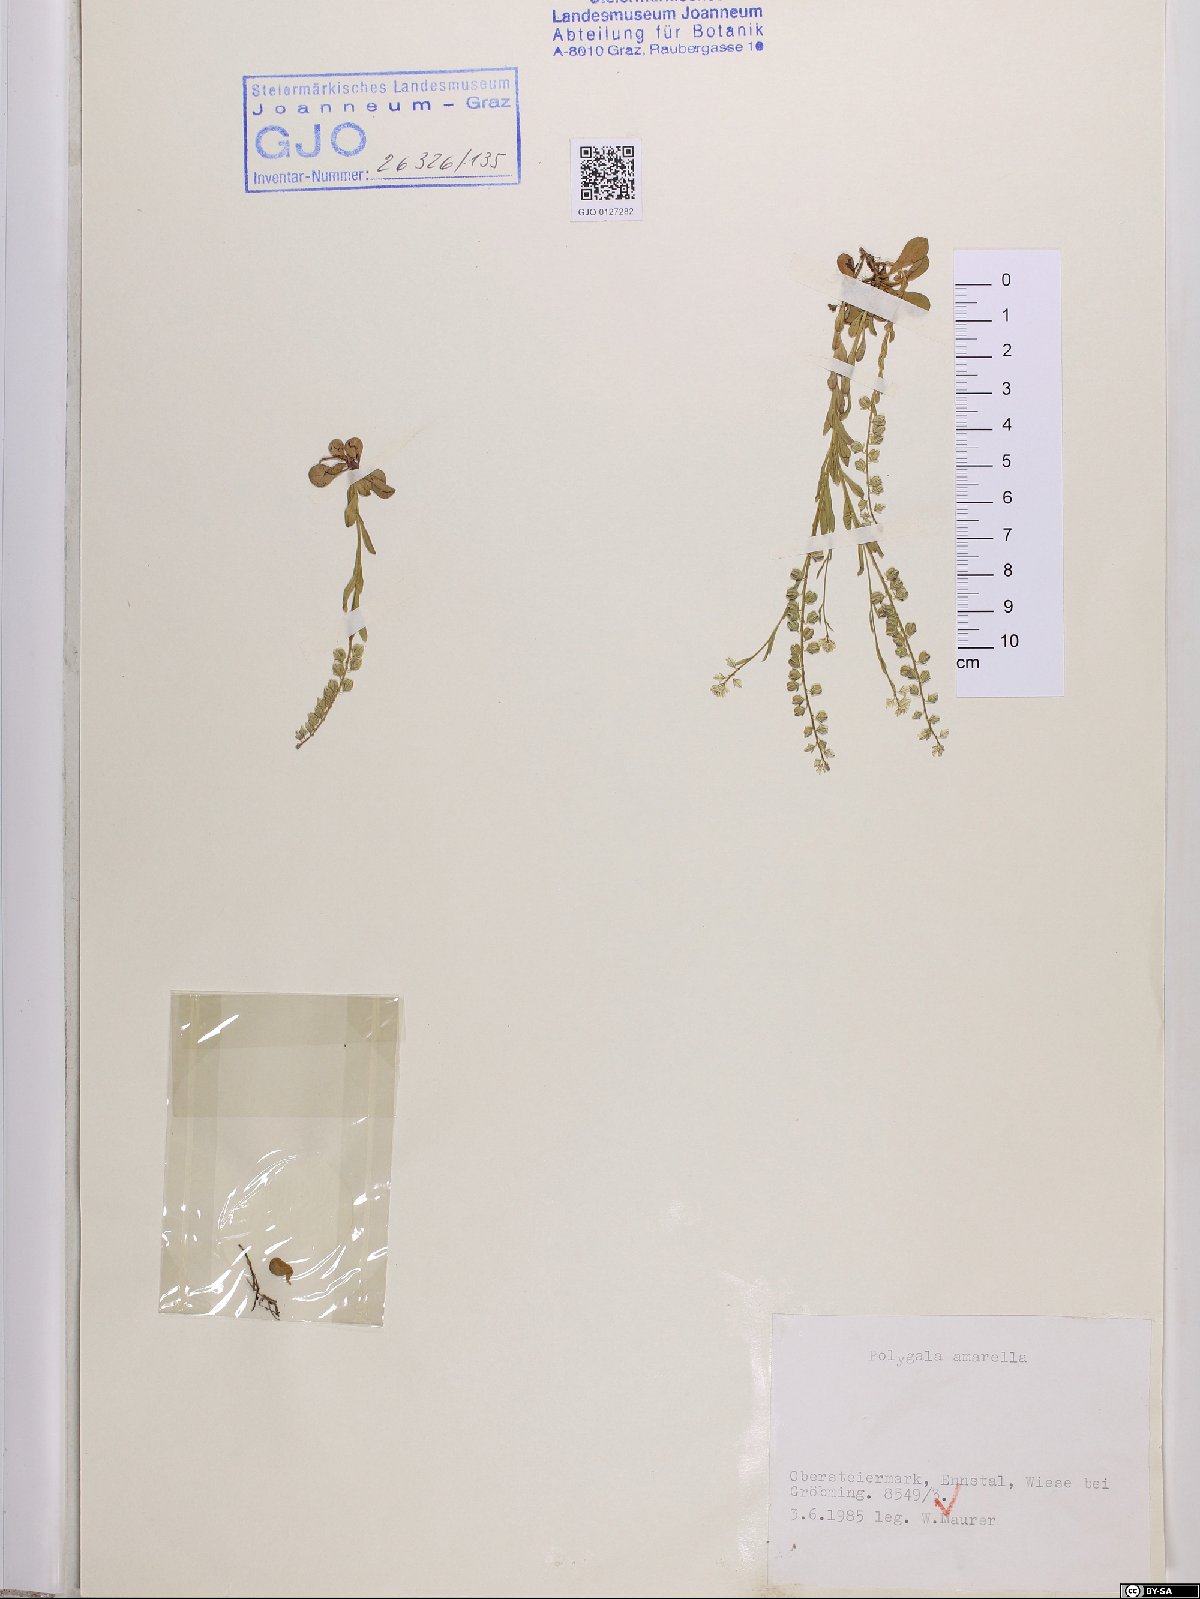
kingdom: Plantae
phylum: Tracheophyta
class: Magnoliopsida
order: Fabales
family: Polygalaceae
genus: Polygala
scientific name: Polygala amarella
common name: Dwarf milkwort
